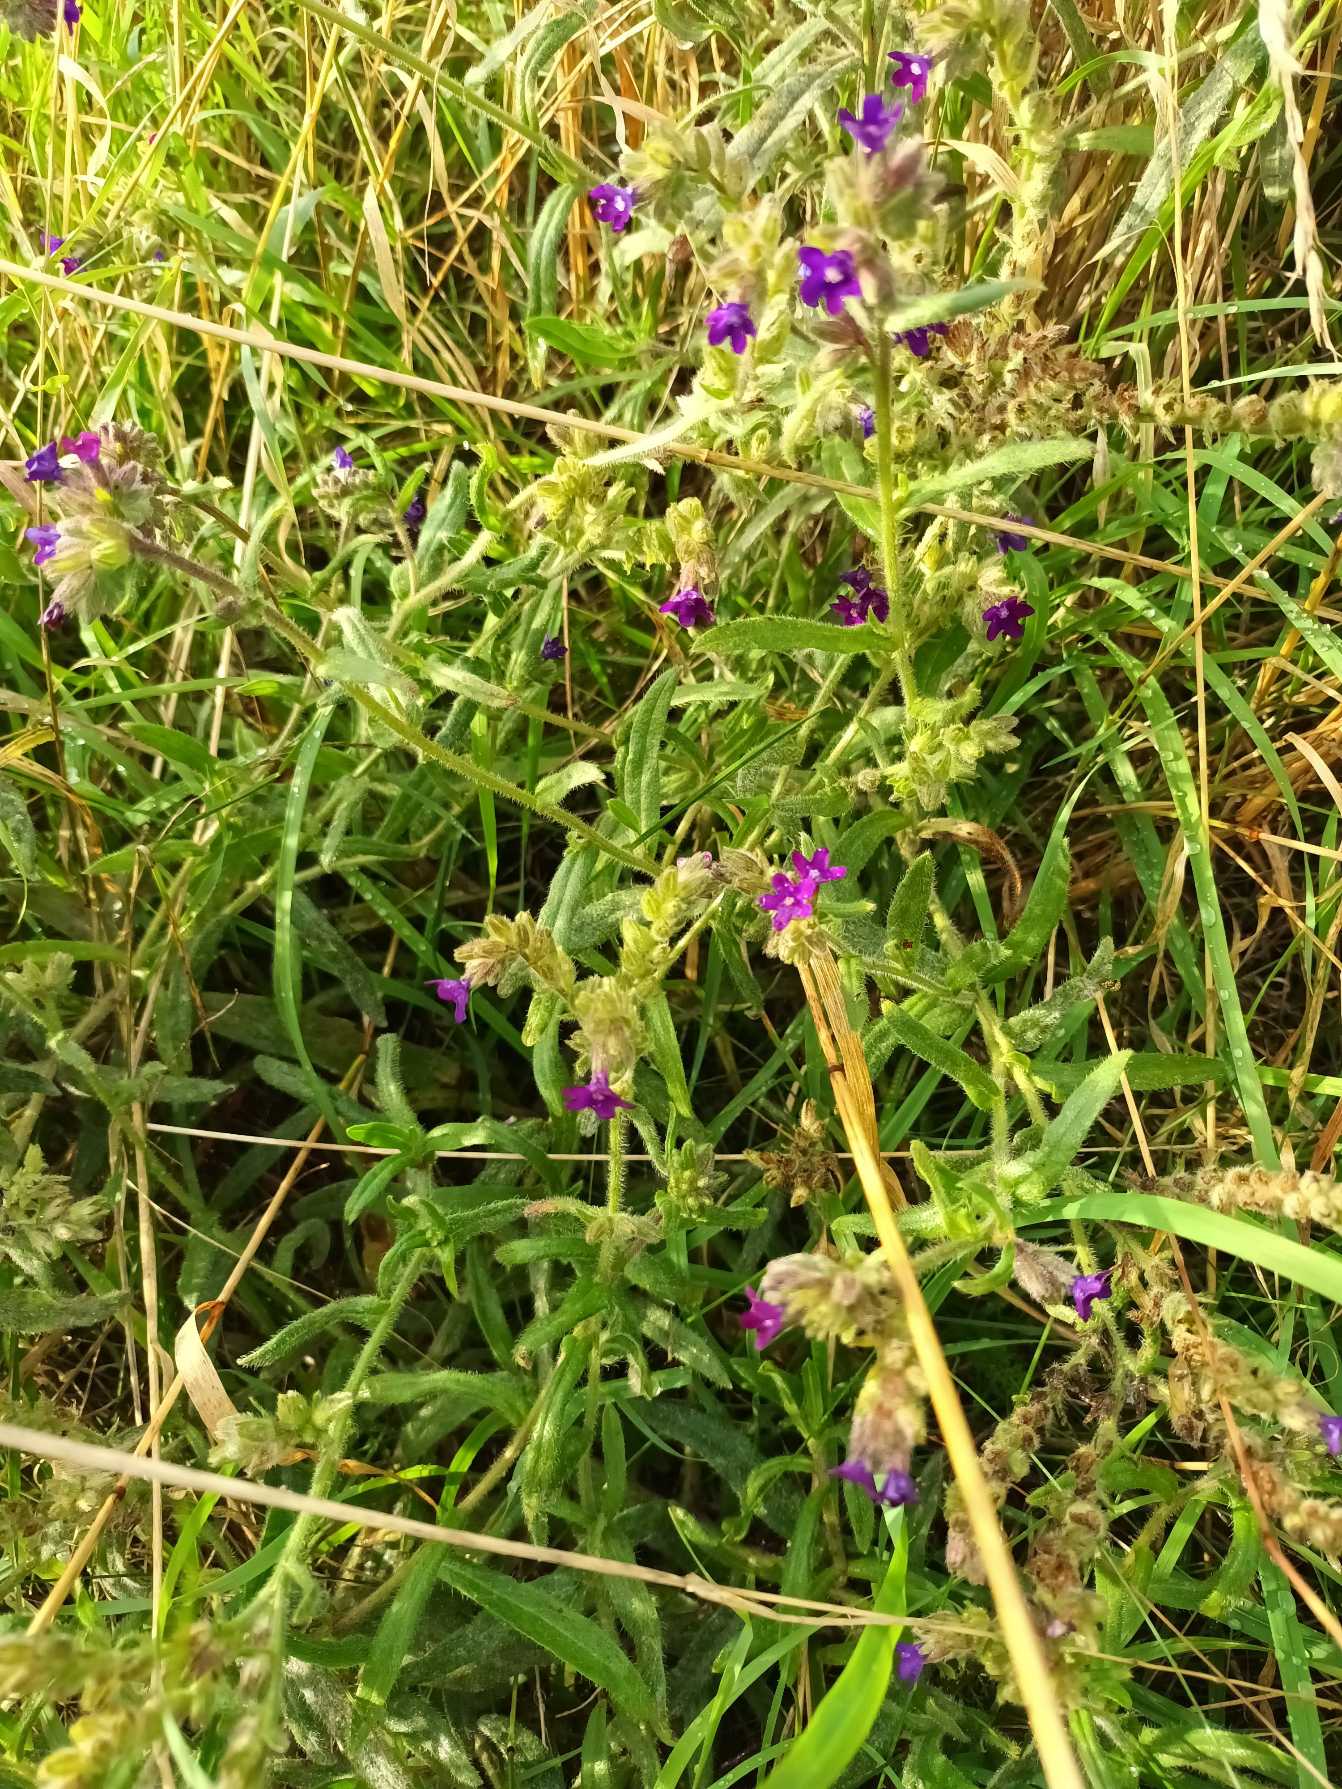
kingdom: Plantae
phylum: Tracheophyta
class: Magnoliopsida
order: Boraginales
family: Boraginaceae
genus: Anchusa
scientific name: Anchusa officinalis
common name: Læge-oksetunge
